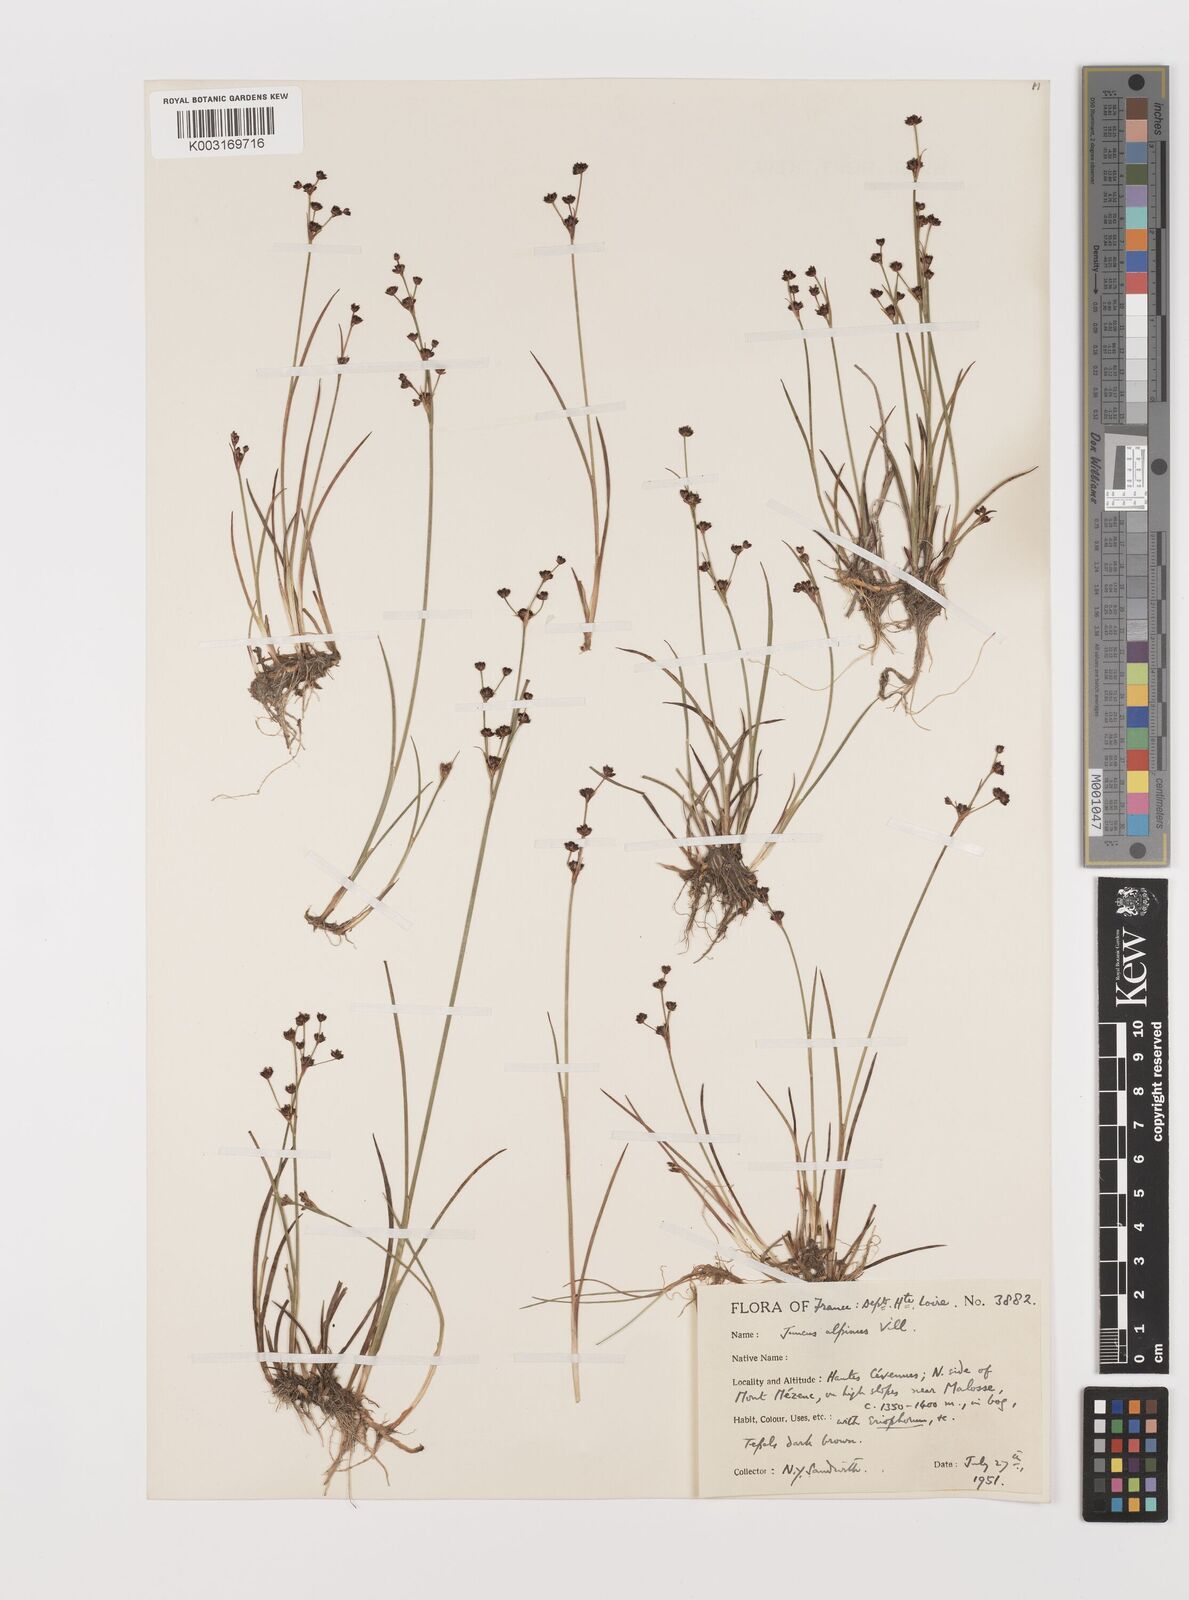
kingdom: Plantae
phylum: Tracheophyta
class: Liliopsida
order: Poales
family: Juncaceae
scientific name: Juncaceae
